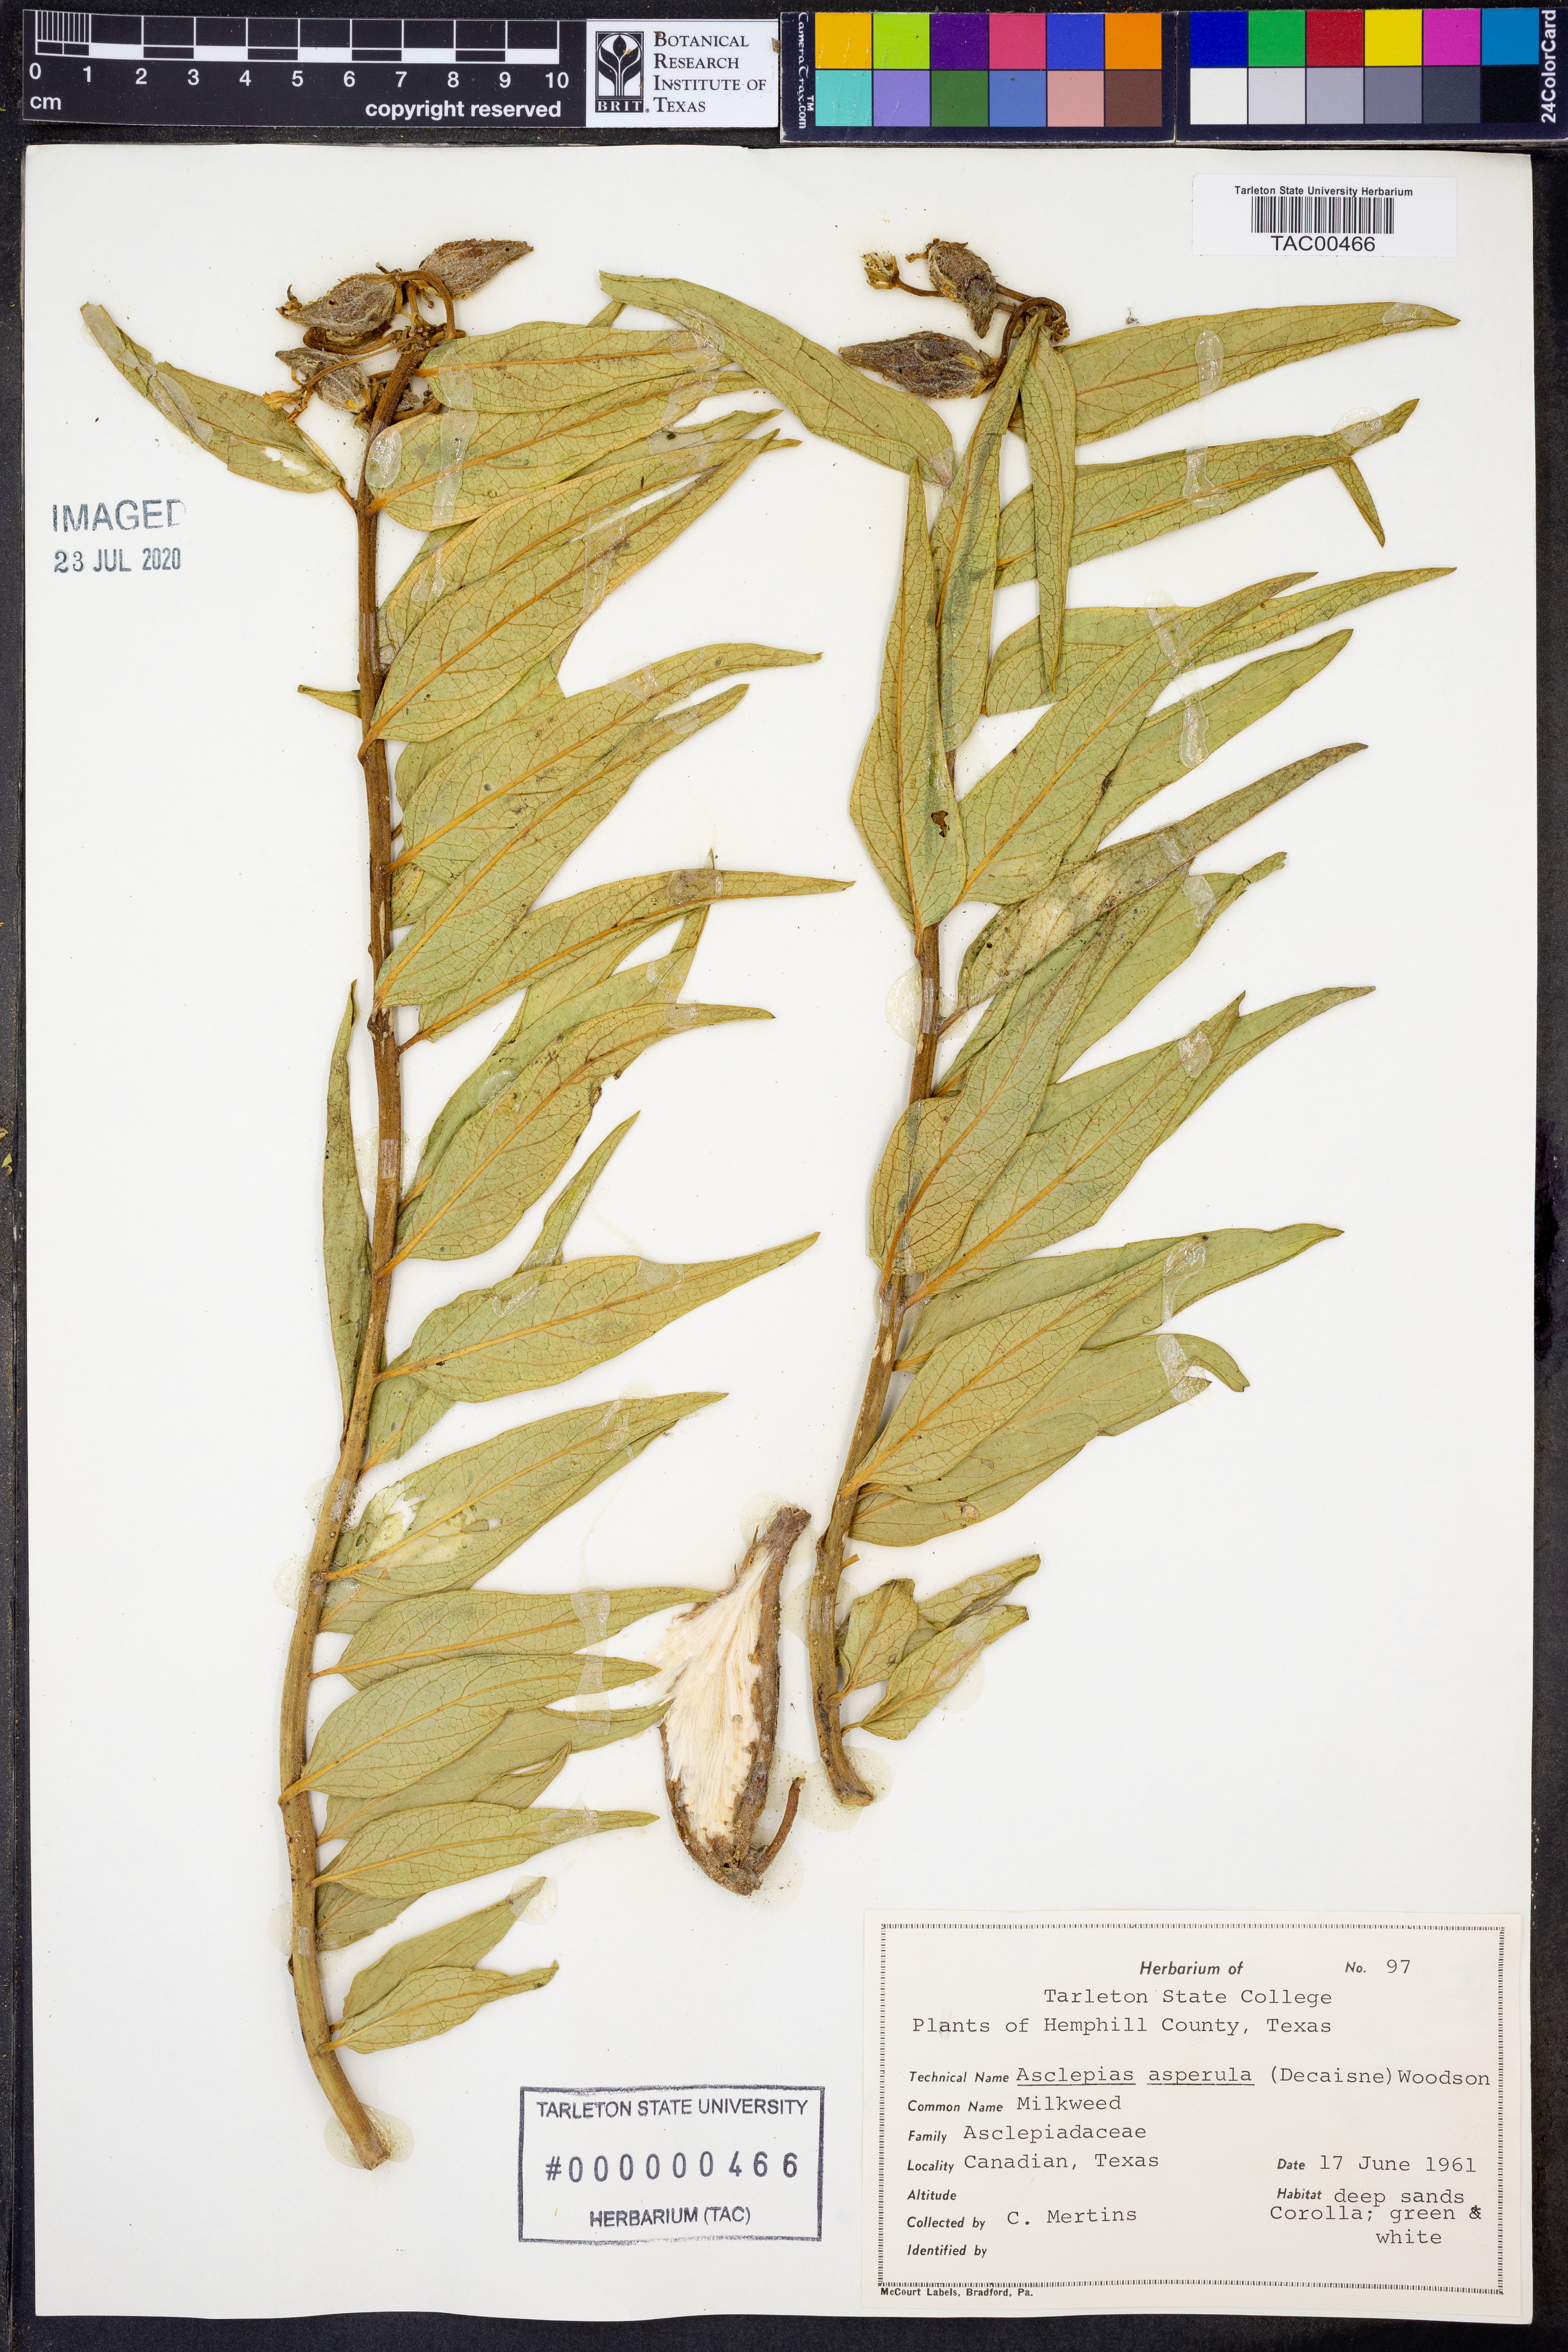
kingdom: Plantae
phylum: Tracheophyta
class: Magnoliopsida
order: Gentianales
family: Apocynaceae
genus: Asclepias
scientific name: Asclepias asperula
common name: Antelope horns
